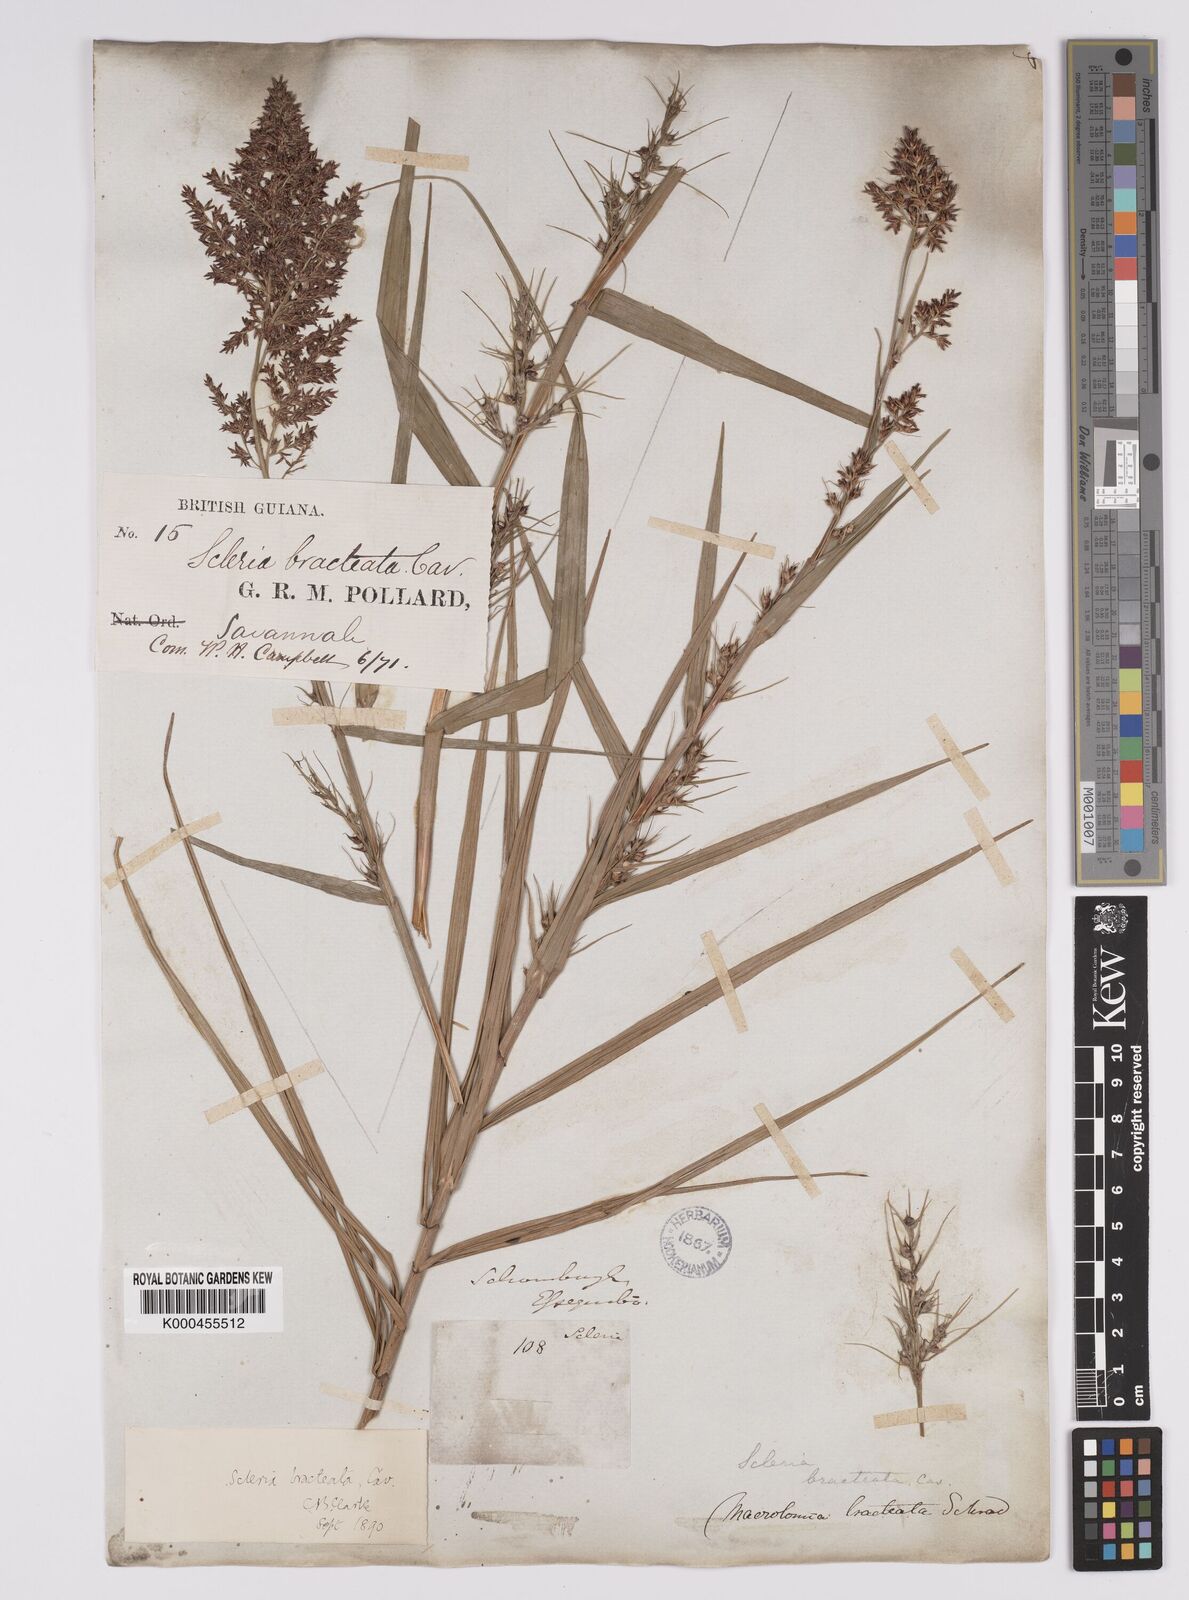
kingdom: Plantae
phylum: Tracheophyta
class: Liliopsida
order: Poales
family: Cyperaceae
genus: Scleria
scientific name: Scleria bracteata
